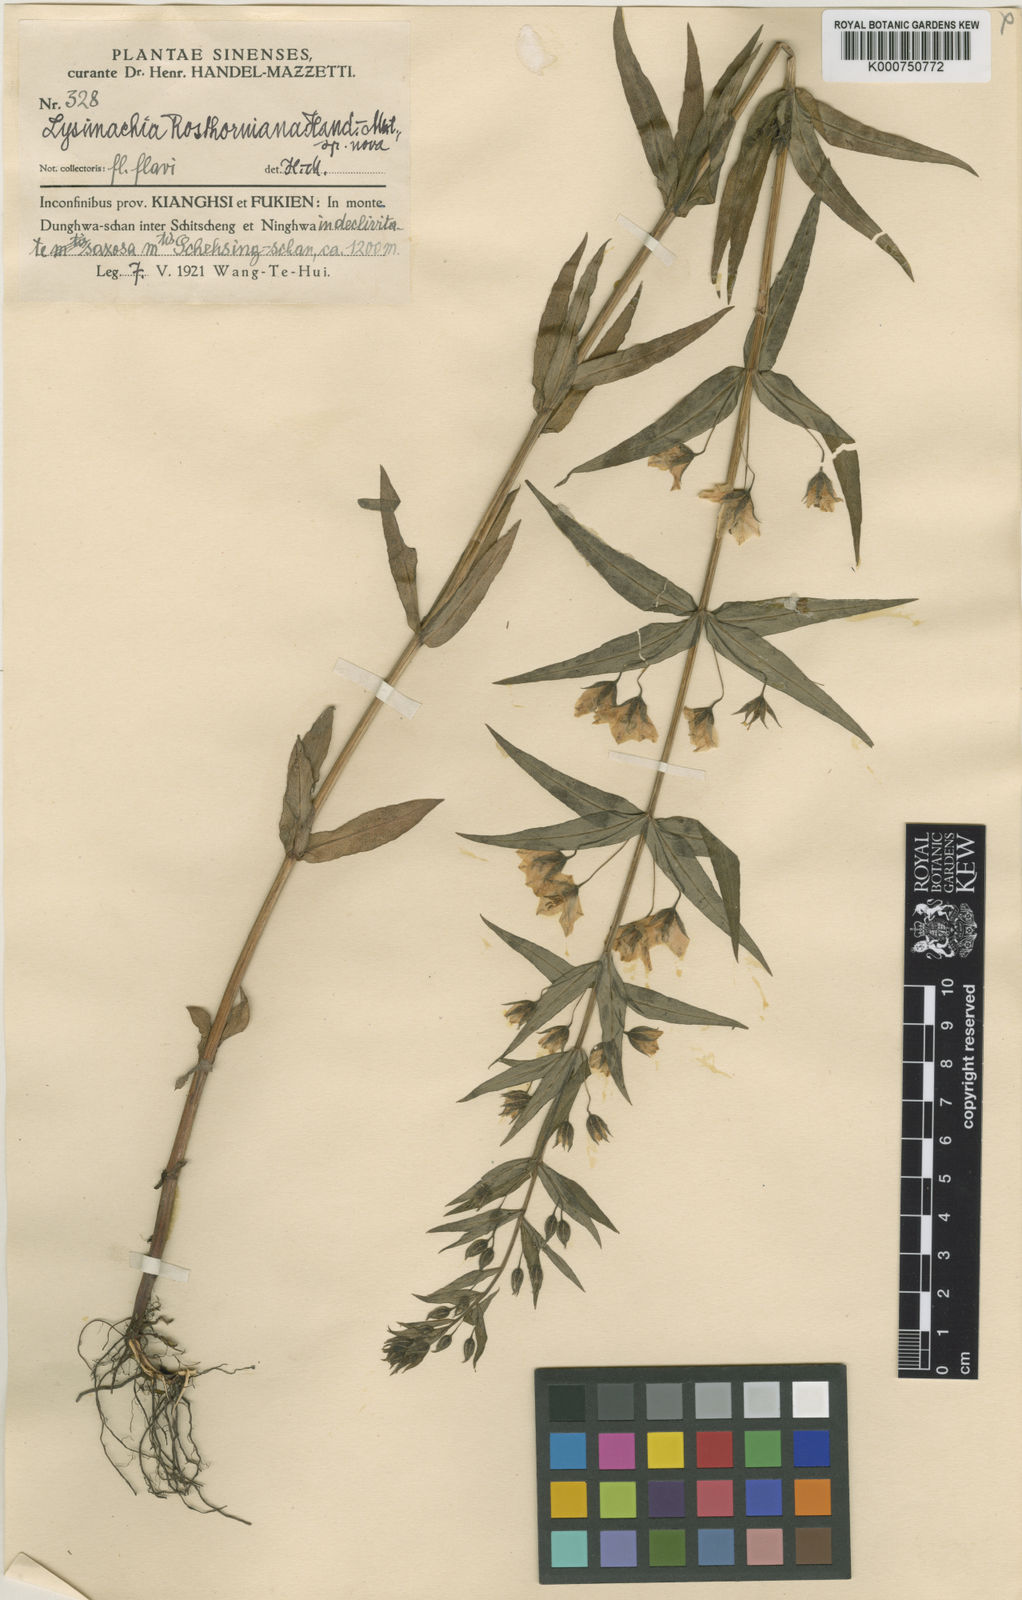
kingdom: Plantae
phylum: Tracheophyta
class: Magnoliopsida
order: Ericales
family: Primulaceae
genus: Lysimachia
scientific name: Lysimachia fukienensis
